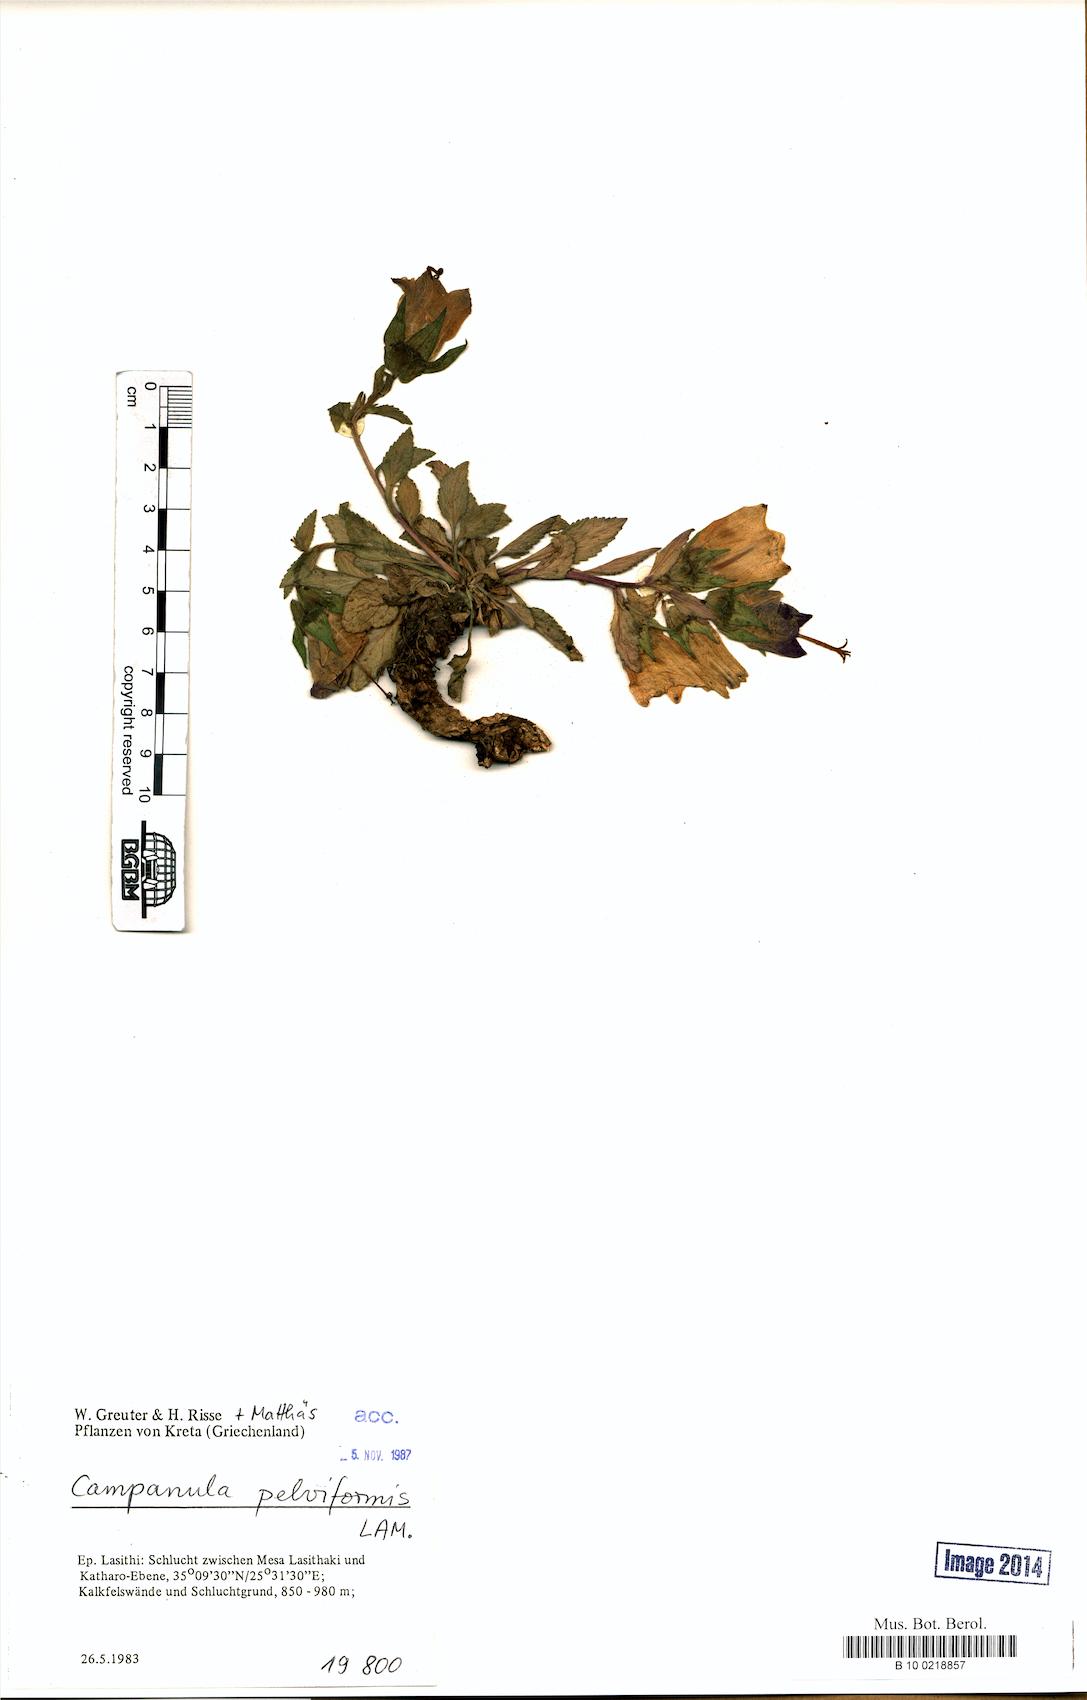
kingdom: Plantae
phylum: Tracheophyta
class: Magnoliopsida
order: Asterales
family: Campanulaceae
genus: Campanula
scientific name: Campanula pelviformis
